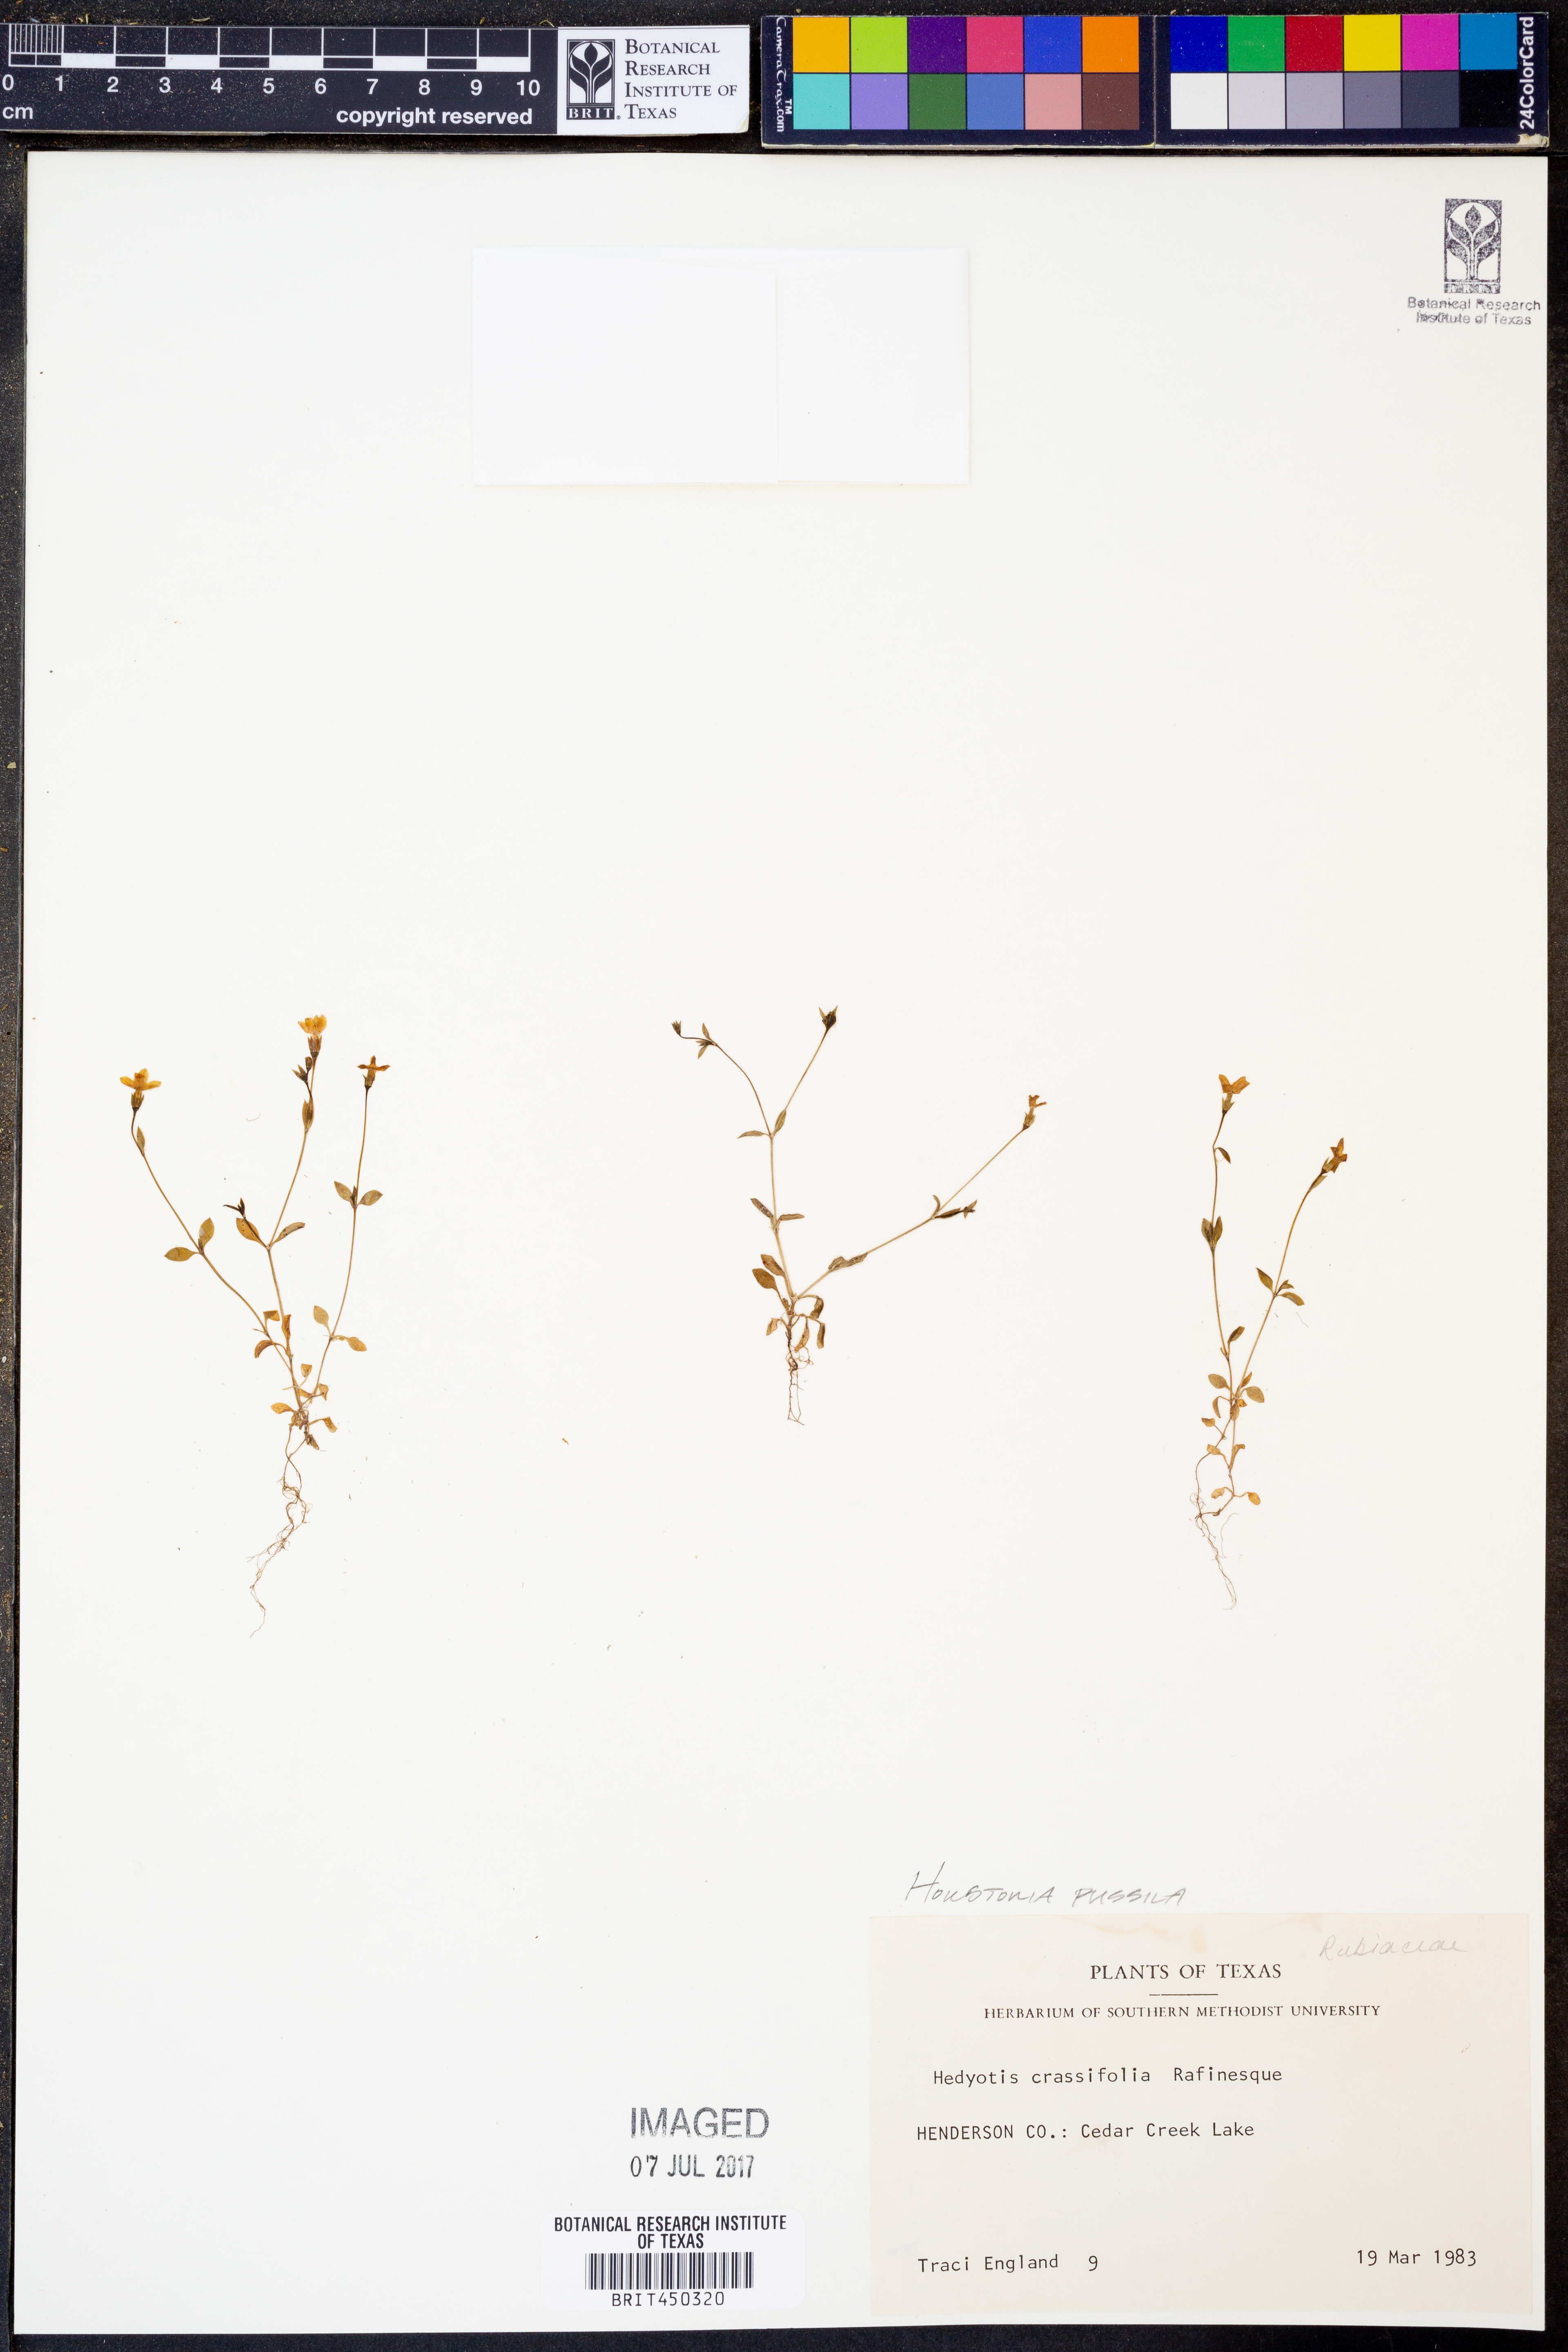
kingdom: Plantae
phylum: Tracheophyta
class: Magnoliopsida
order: Gentianales
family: Rubiaceae
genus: Houstonia
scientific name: Houstonia pusilla
